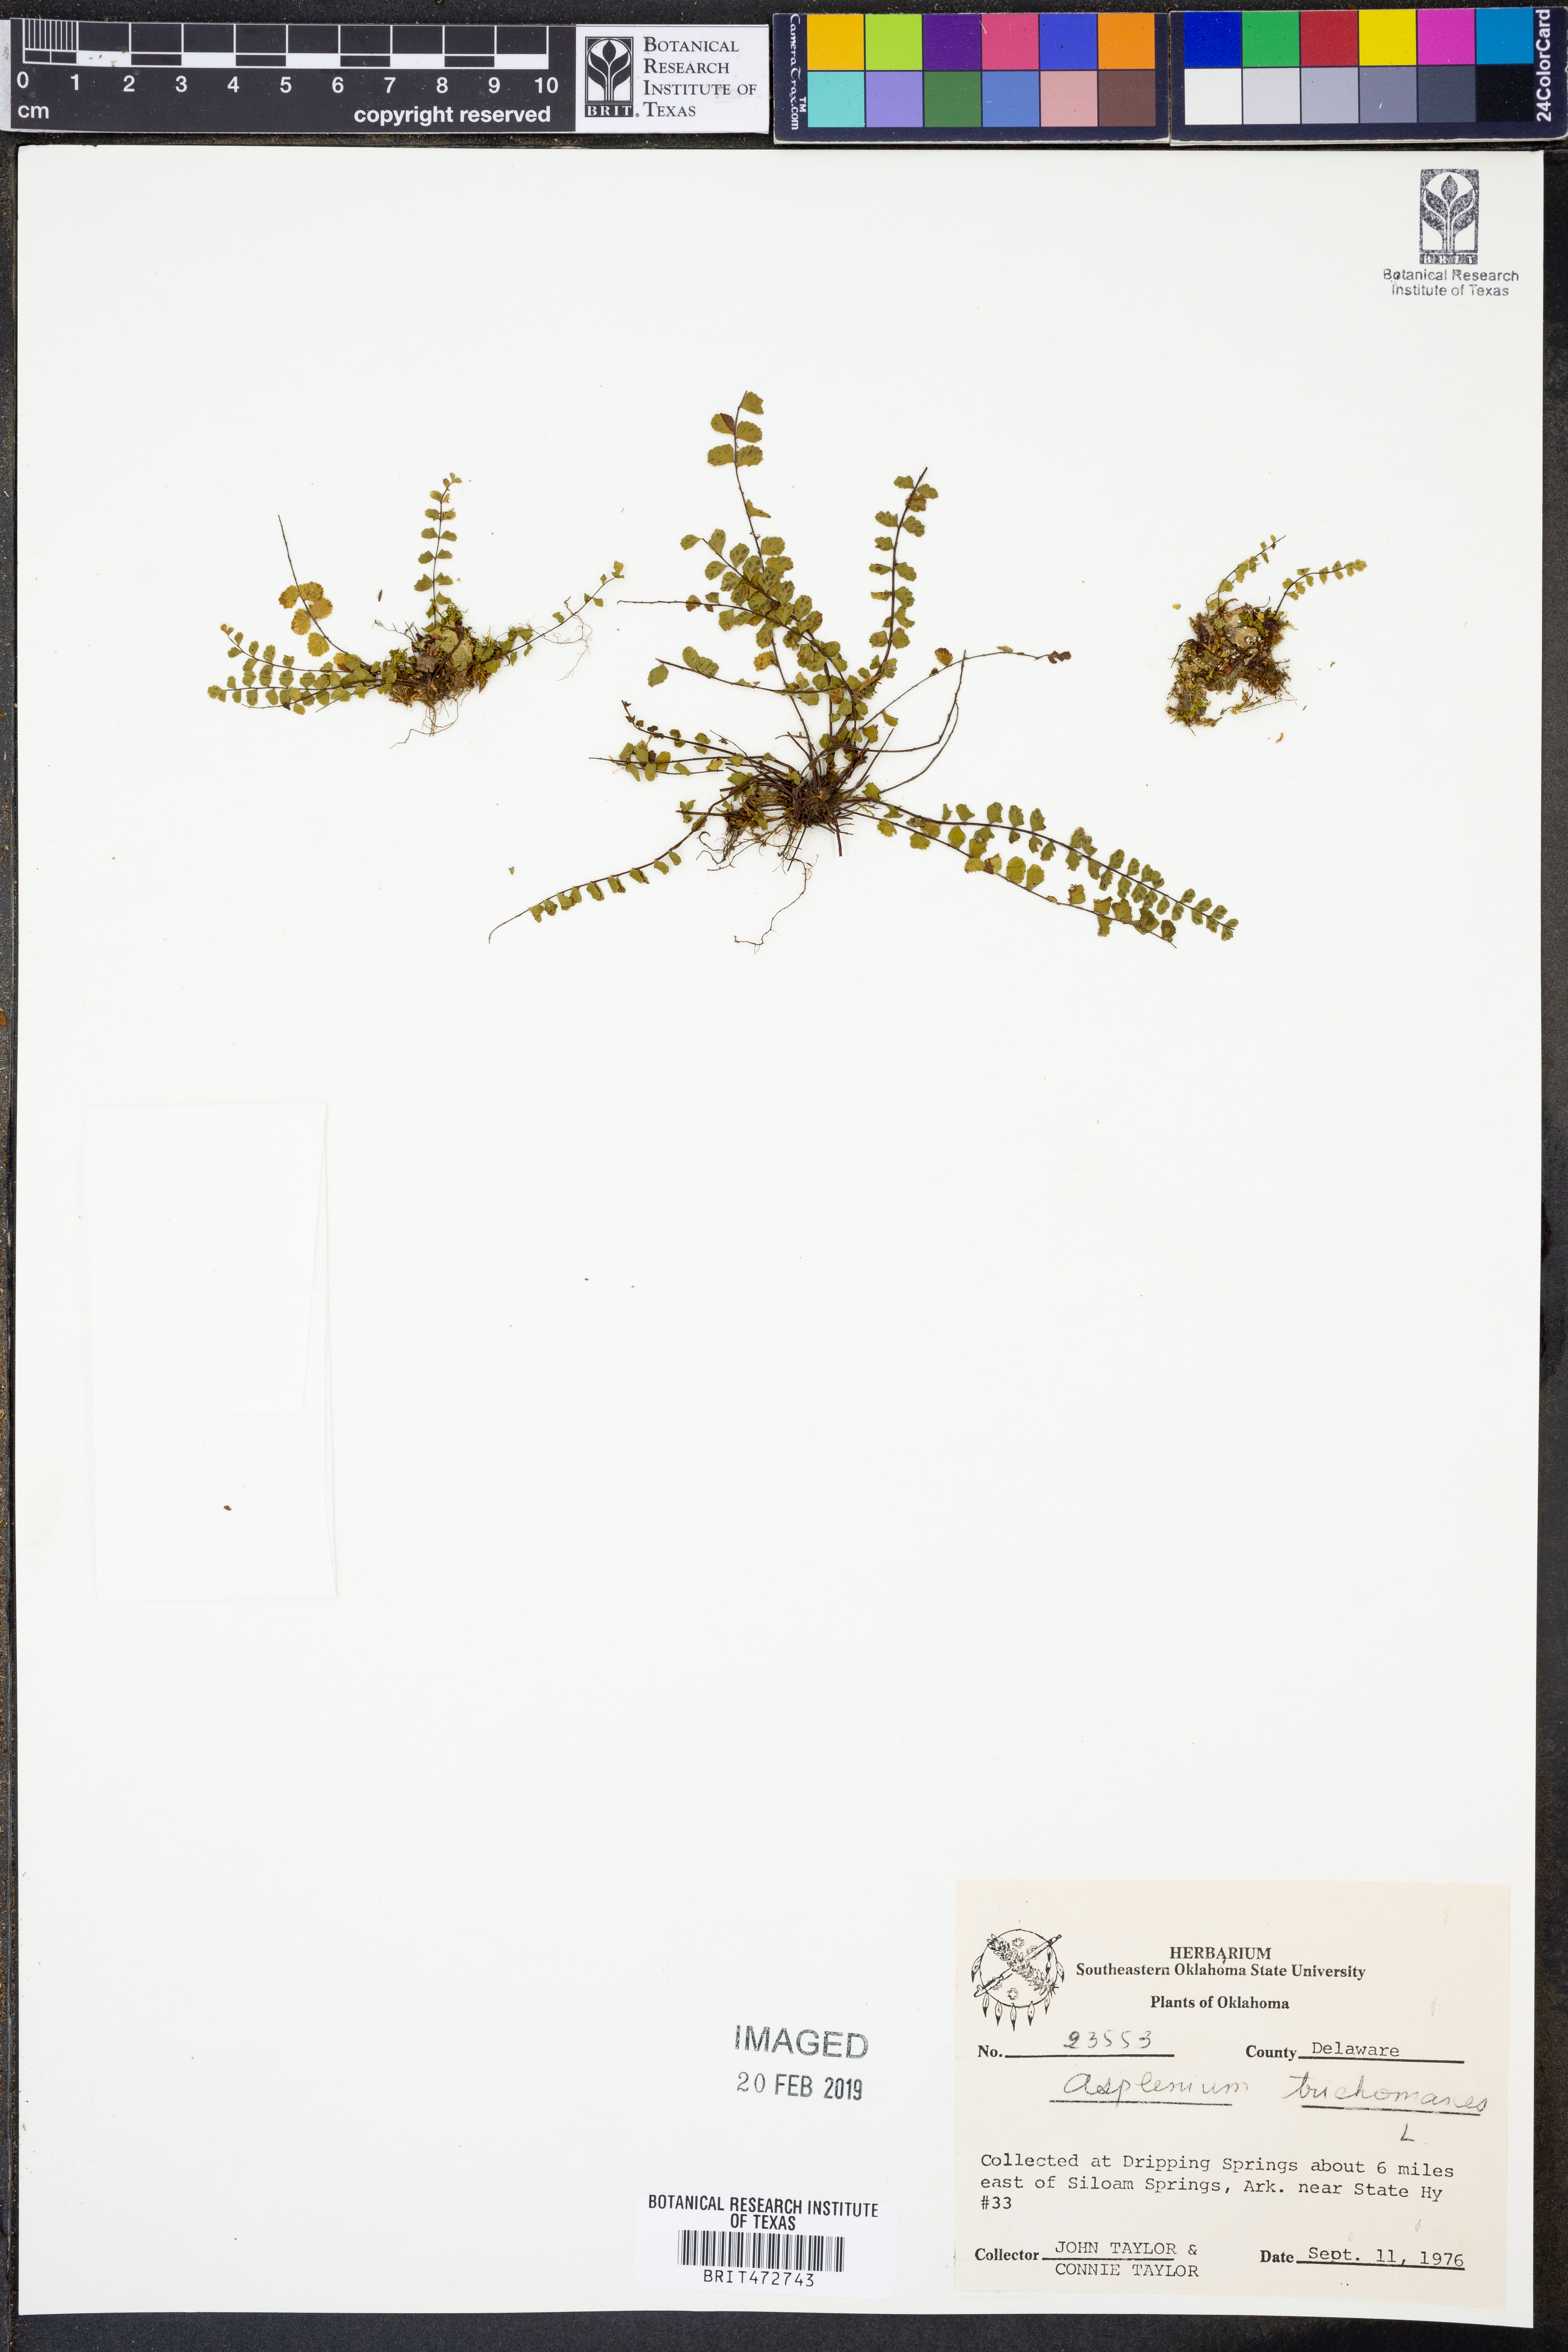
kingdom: Plantae
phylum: Tracheophyta
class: Polypodiopsida
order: Polypodiales
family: Aspleniaceae
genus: Asplenium
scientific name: Asplenium trichomanes
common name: Maidenhair spleenwort
